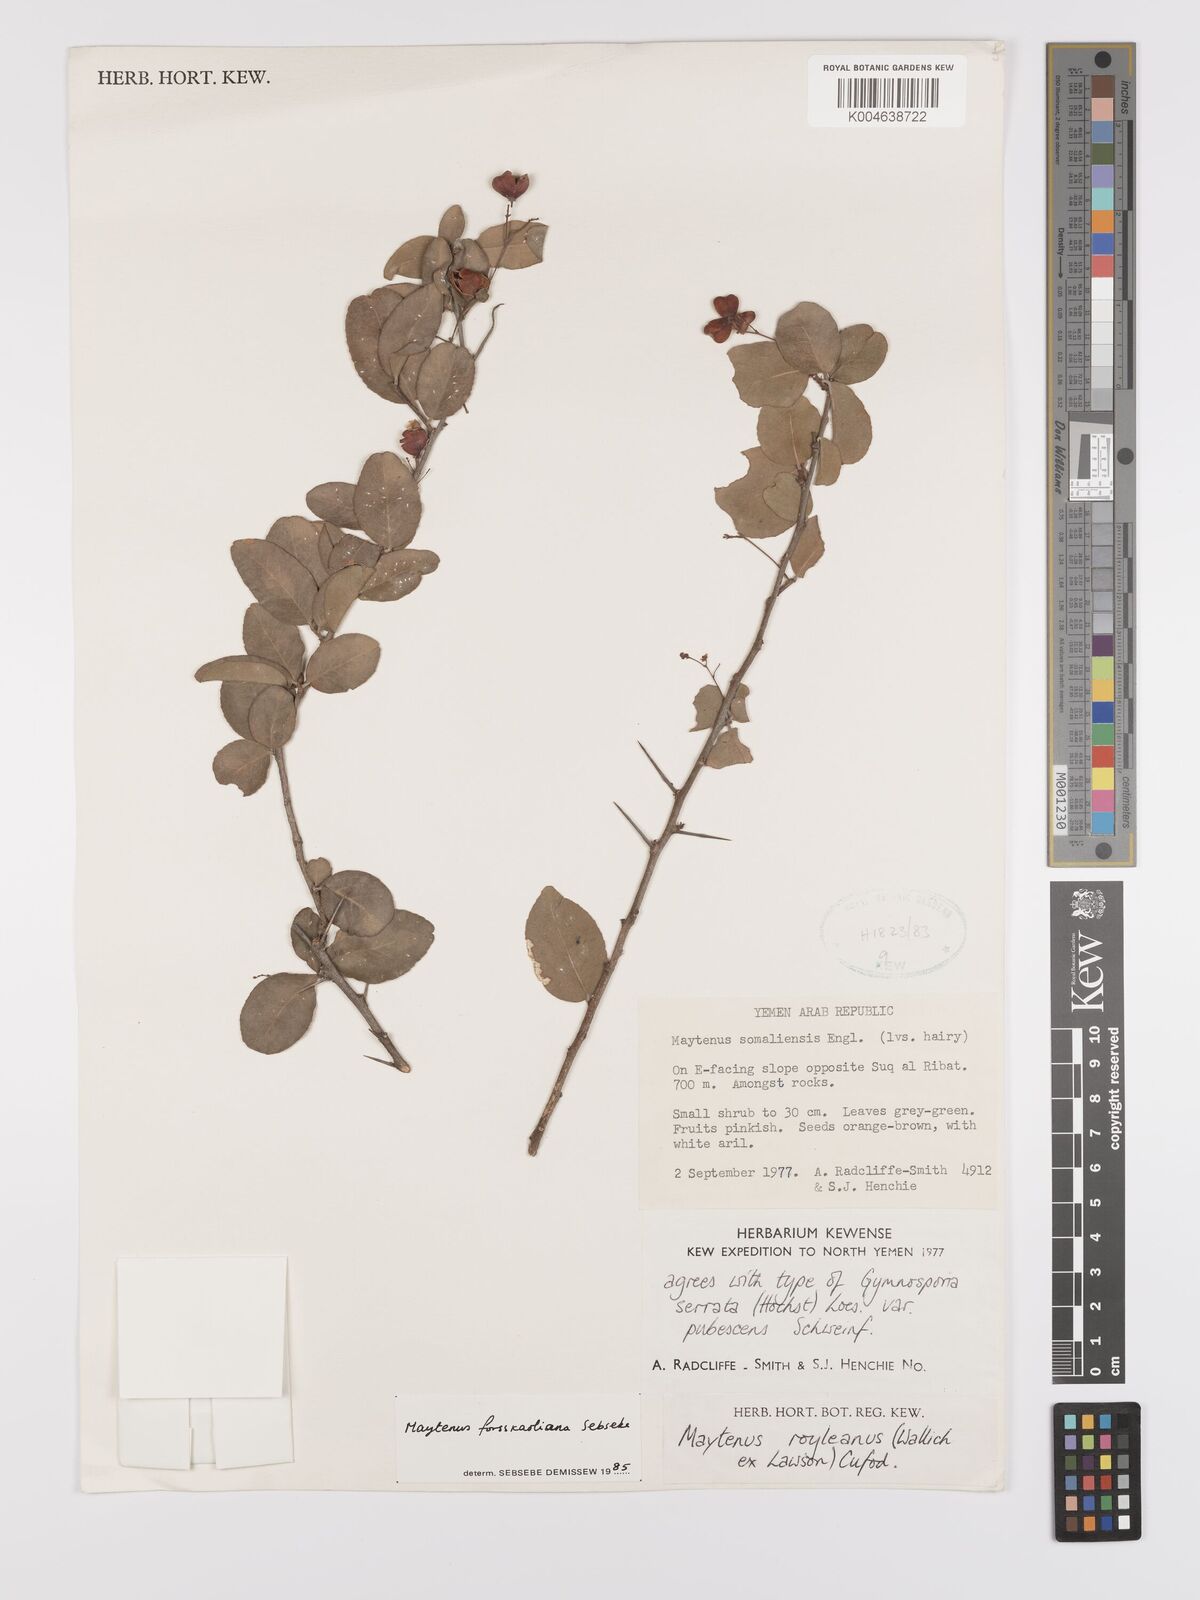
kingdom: Plantae
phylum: Tracheophyta
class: Magnoliopsida
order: Celastrales
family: Celastraceae
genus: Gymnosporia
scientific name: Gymnosporia forsskaoliana
